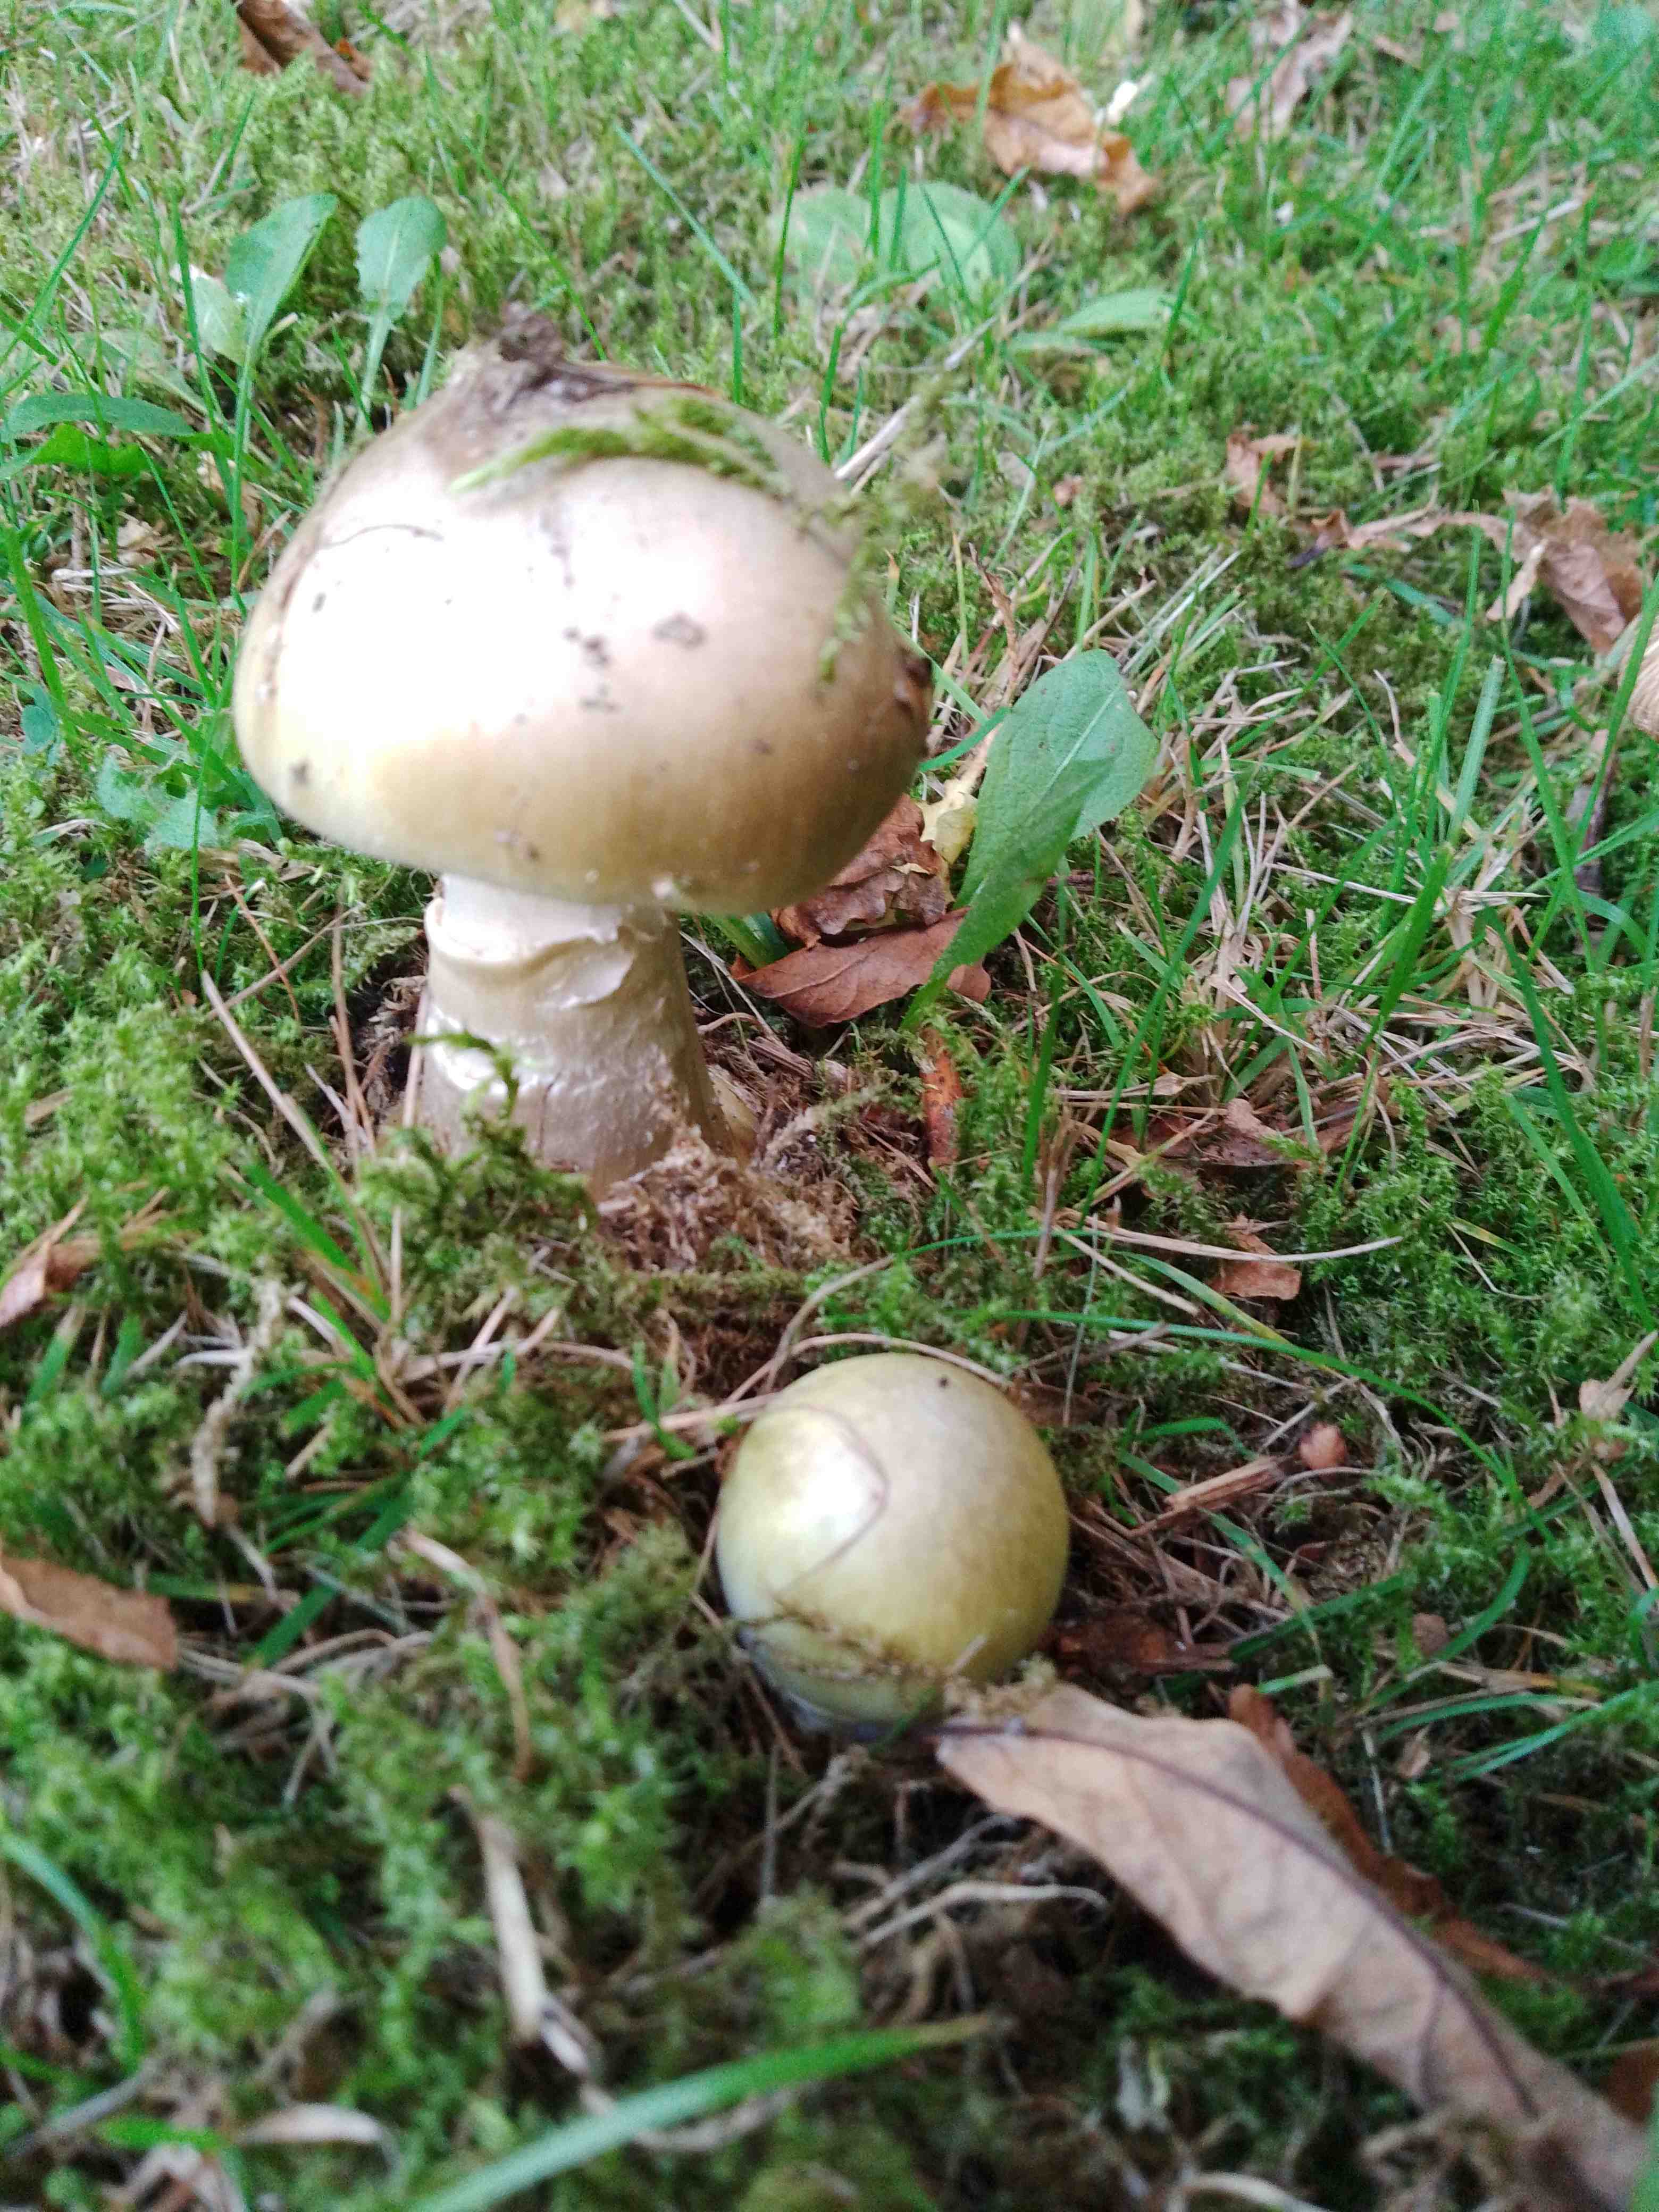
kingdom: Fungi
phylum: Basidiomycota
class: Agaricomycetes
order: Agaricales
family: Amanitaceae
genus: Amanita
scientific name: Amanita phalloides
